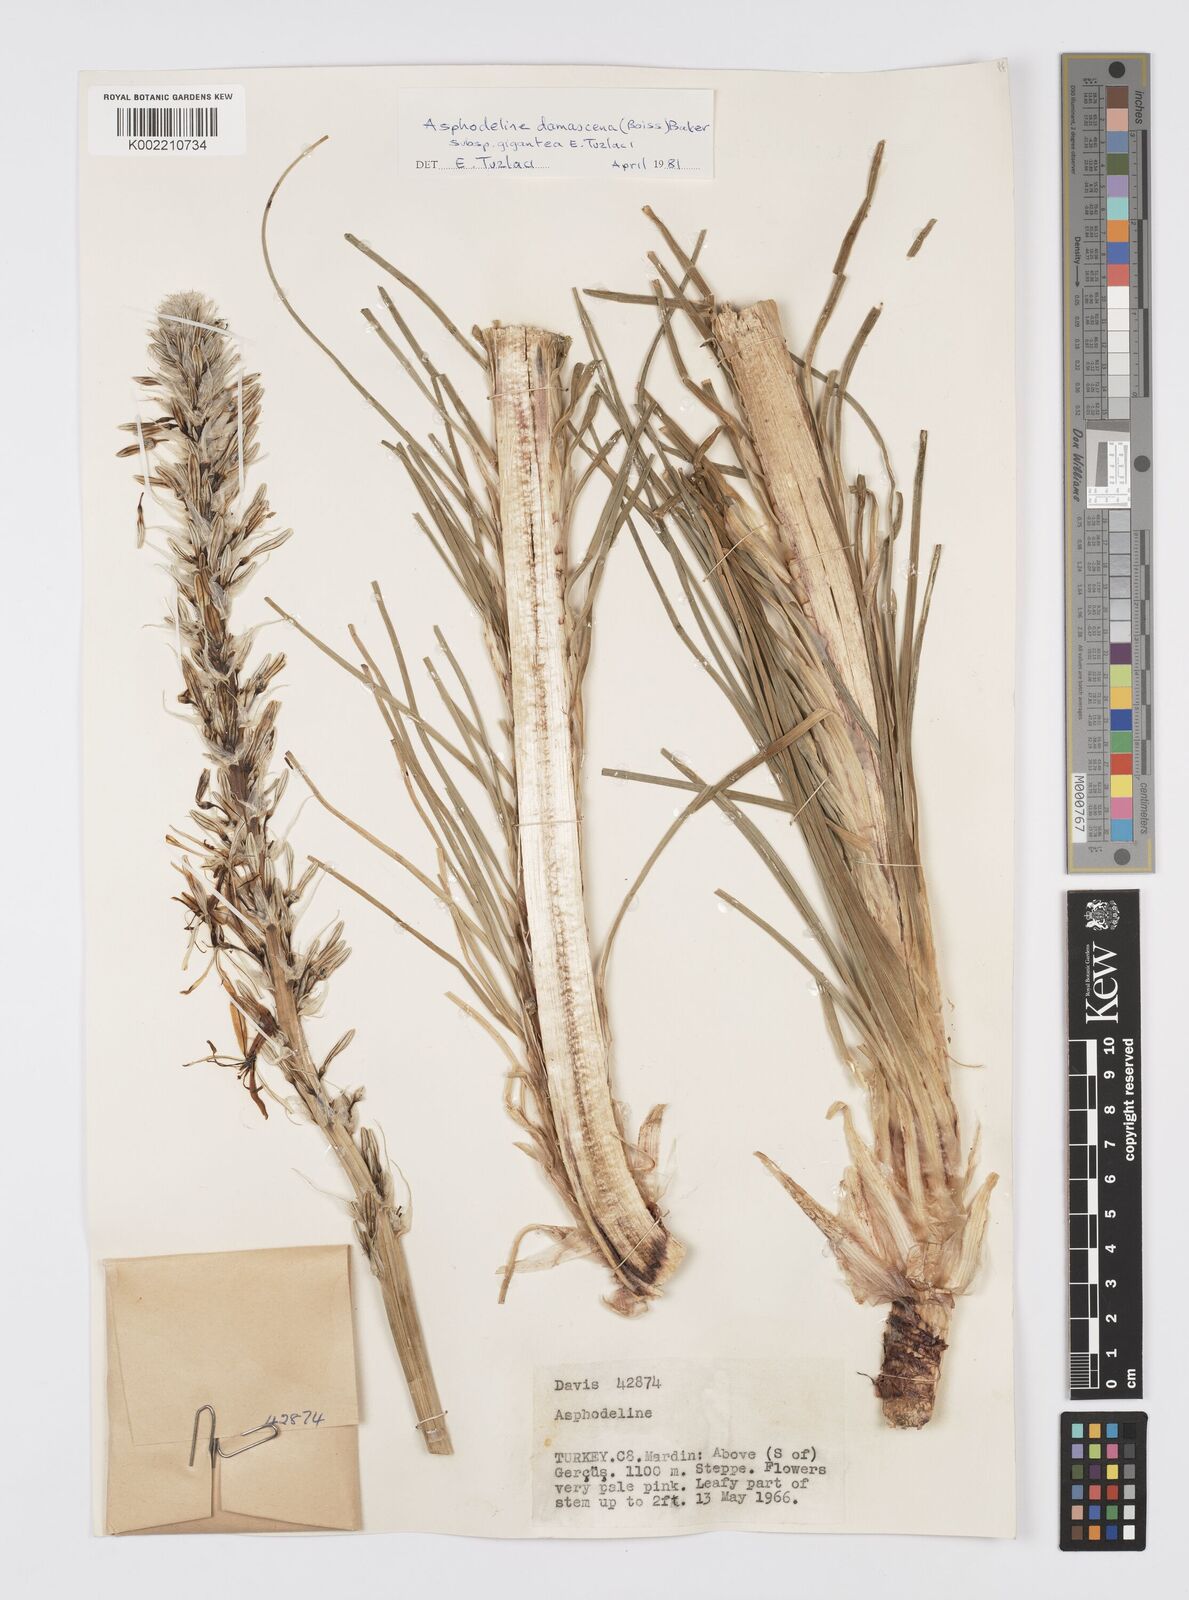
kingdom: Plantae
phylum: Tracheophyta
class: Liliopsida
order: Asparagales
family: Asphodelaceae
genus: Asphodeline
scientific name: Asphodeline damascena
